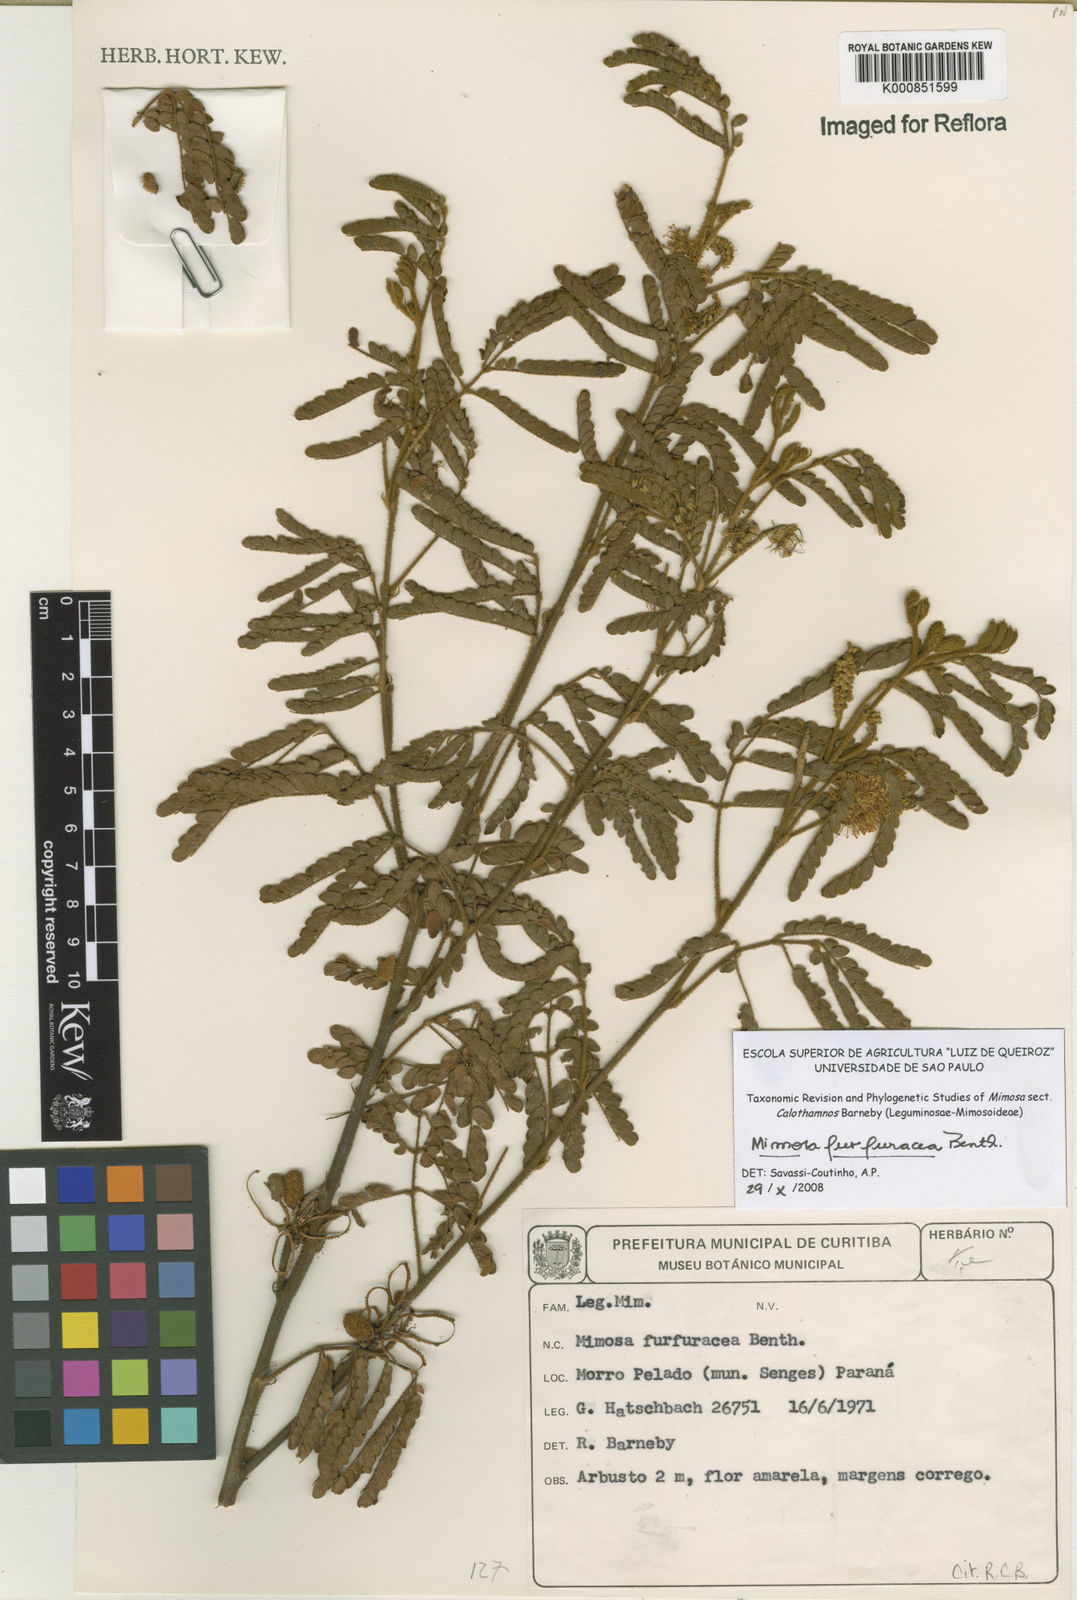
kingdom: Plantae
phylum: Tracheophyta
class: Magnoliopsida
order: Fabales
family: Fabaceae
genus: Mimosa
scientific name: Mimosa furfuracea
